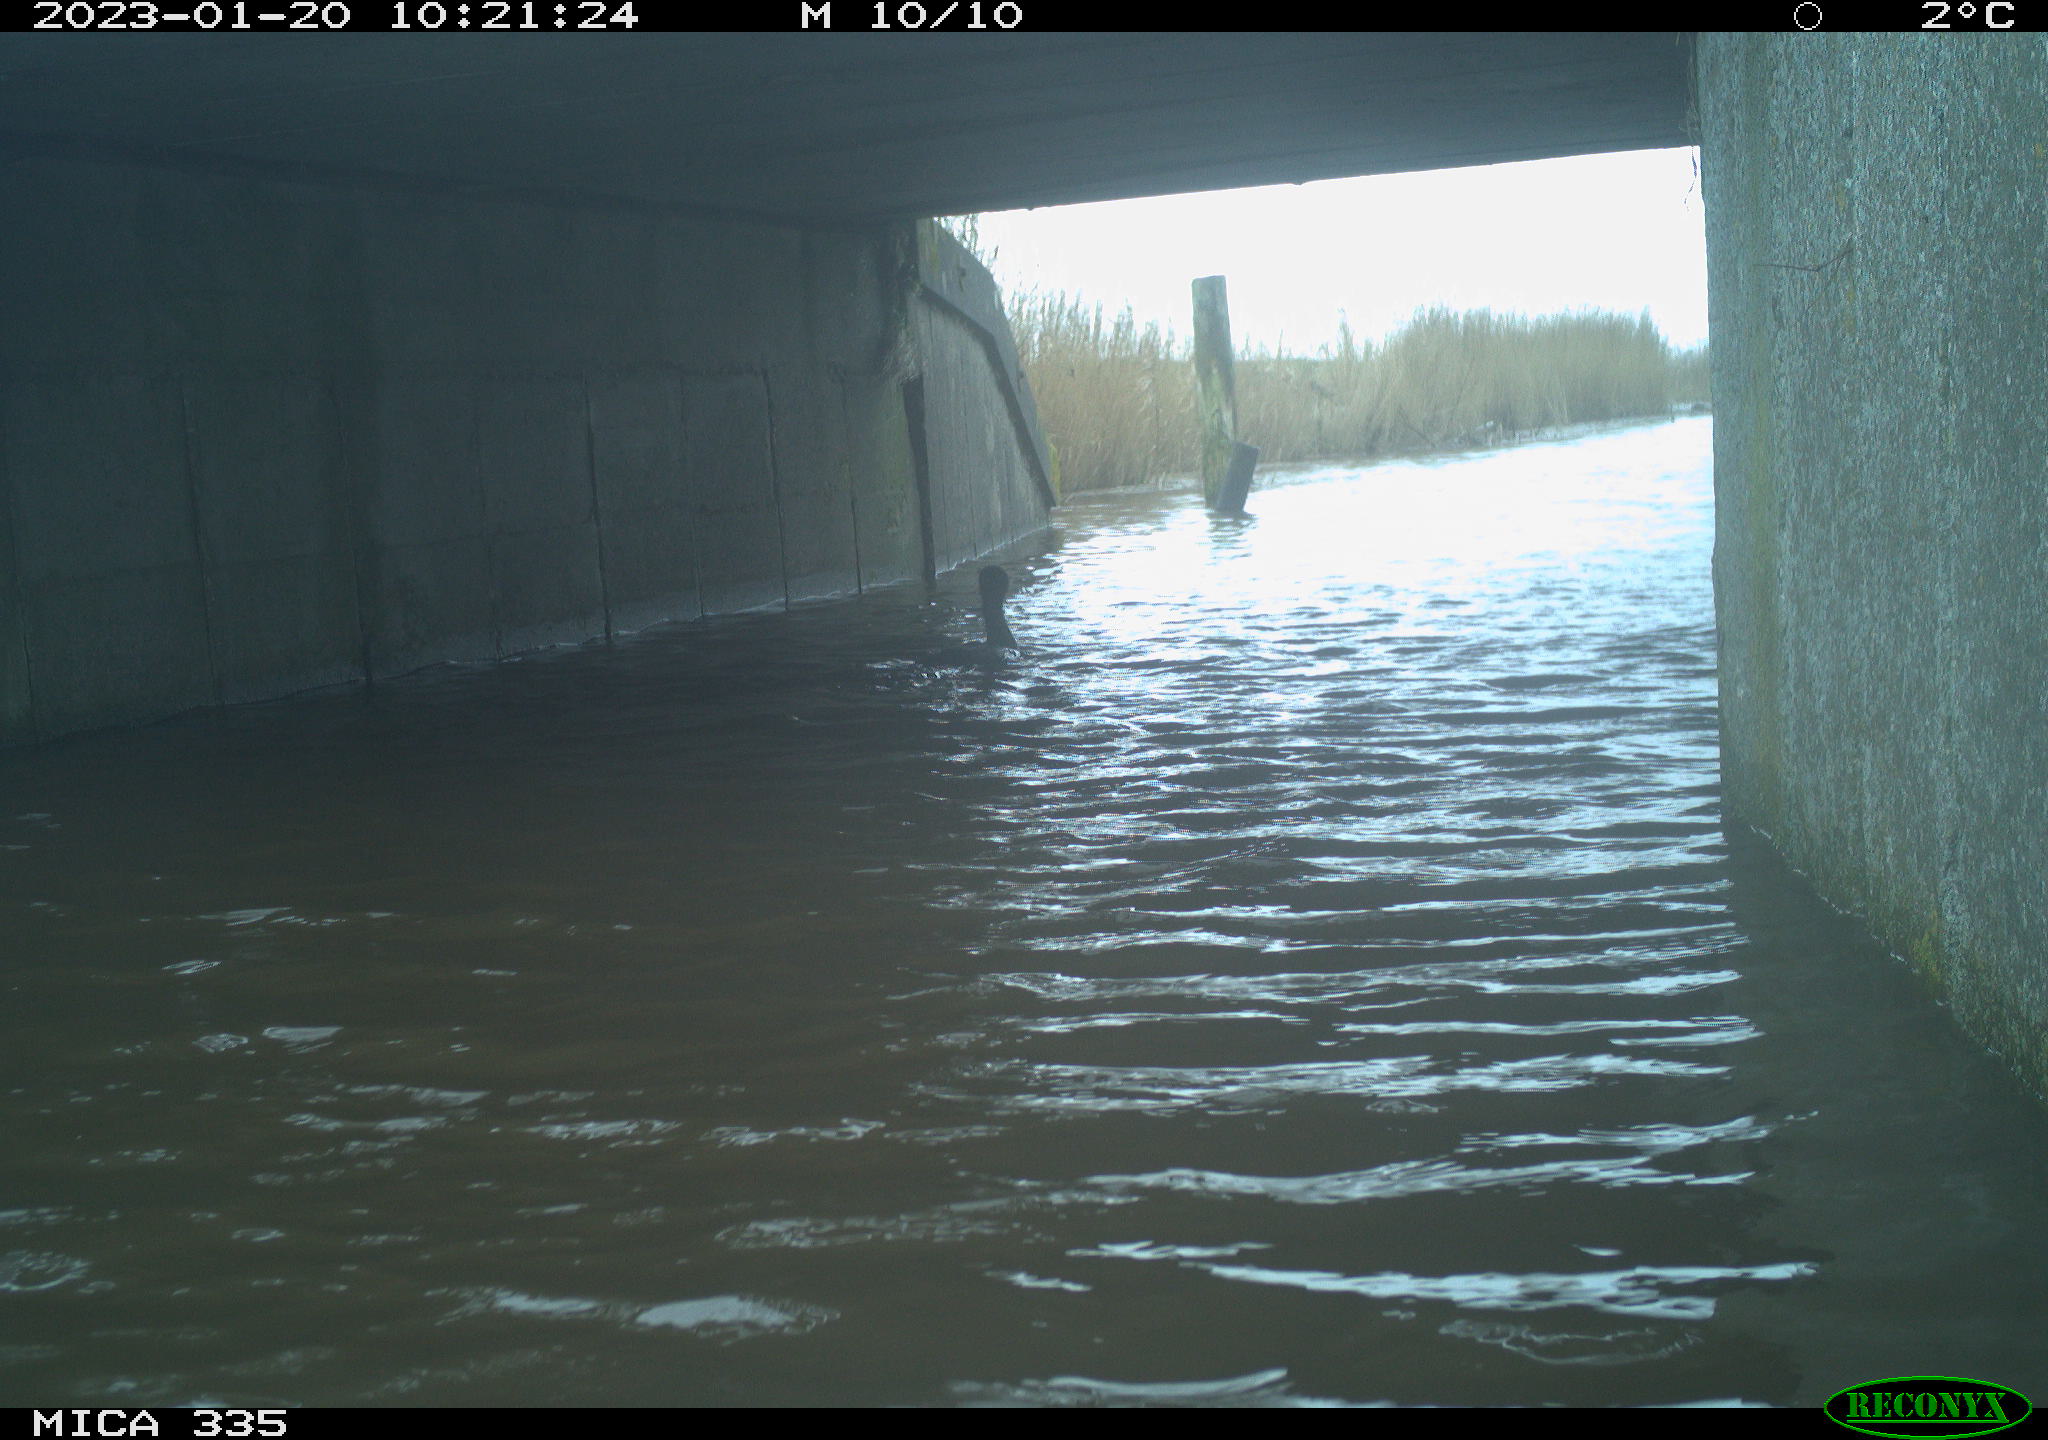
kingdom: Animalia
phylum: Chordata
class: Aves
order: Suliformes
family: Phalacrocoracidae
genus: Phalacrocorax
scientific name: Phalacrocorax carbo
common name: Great cormorant
